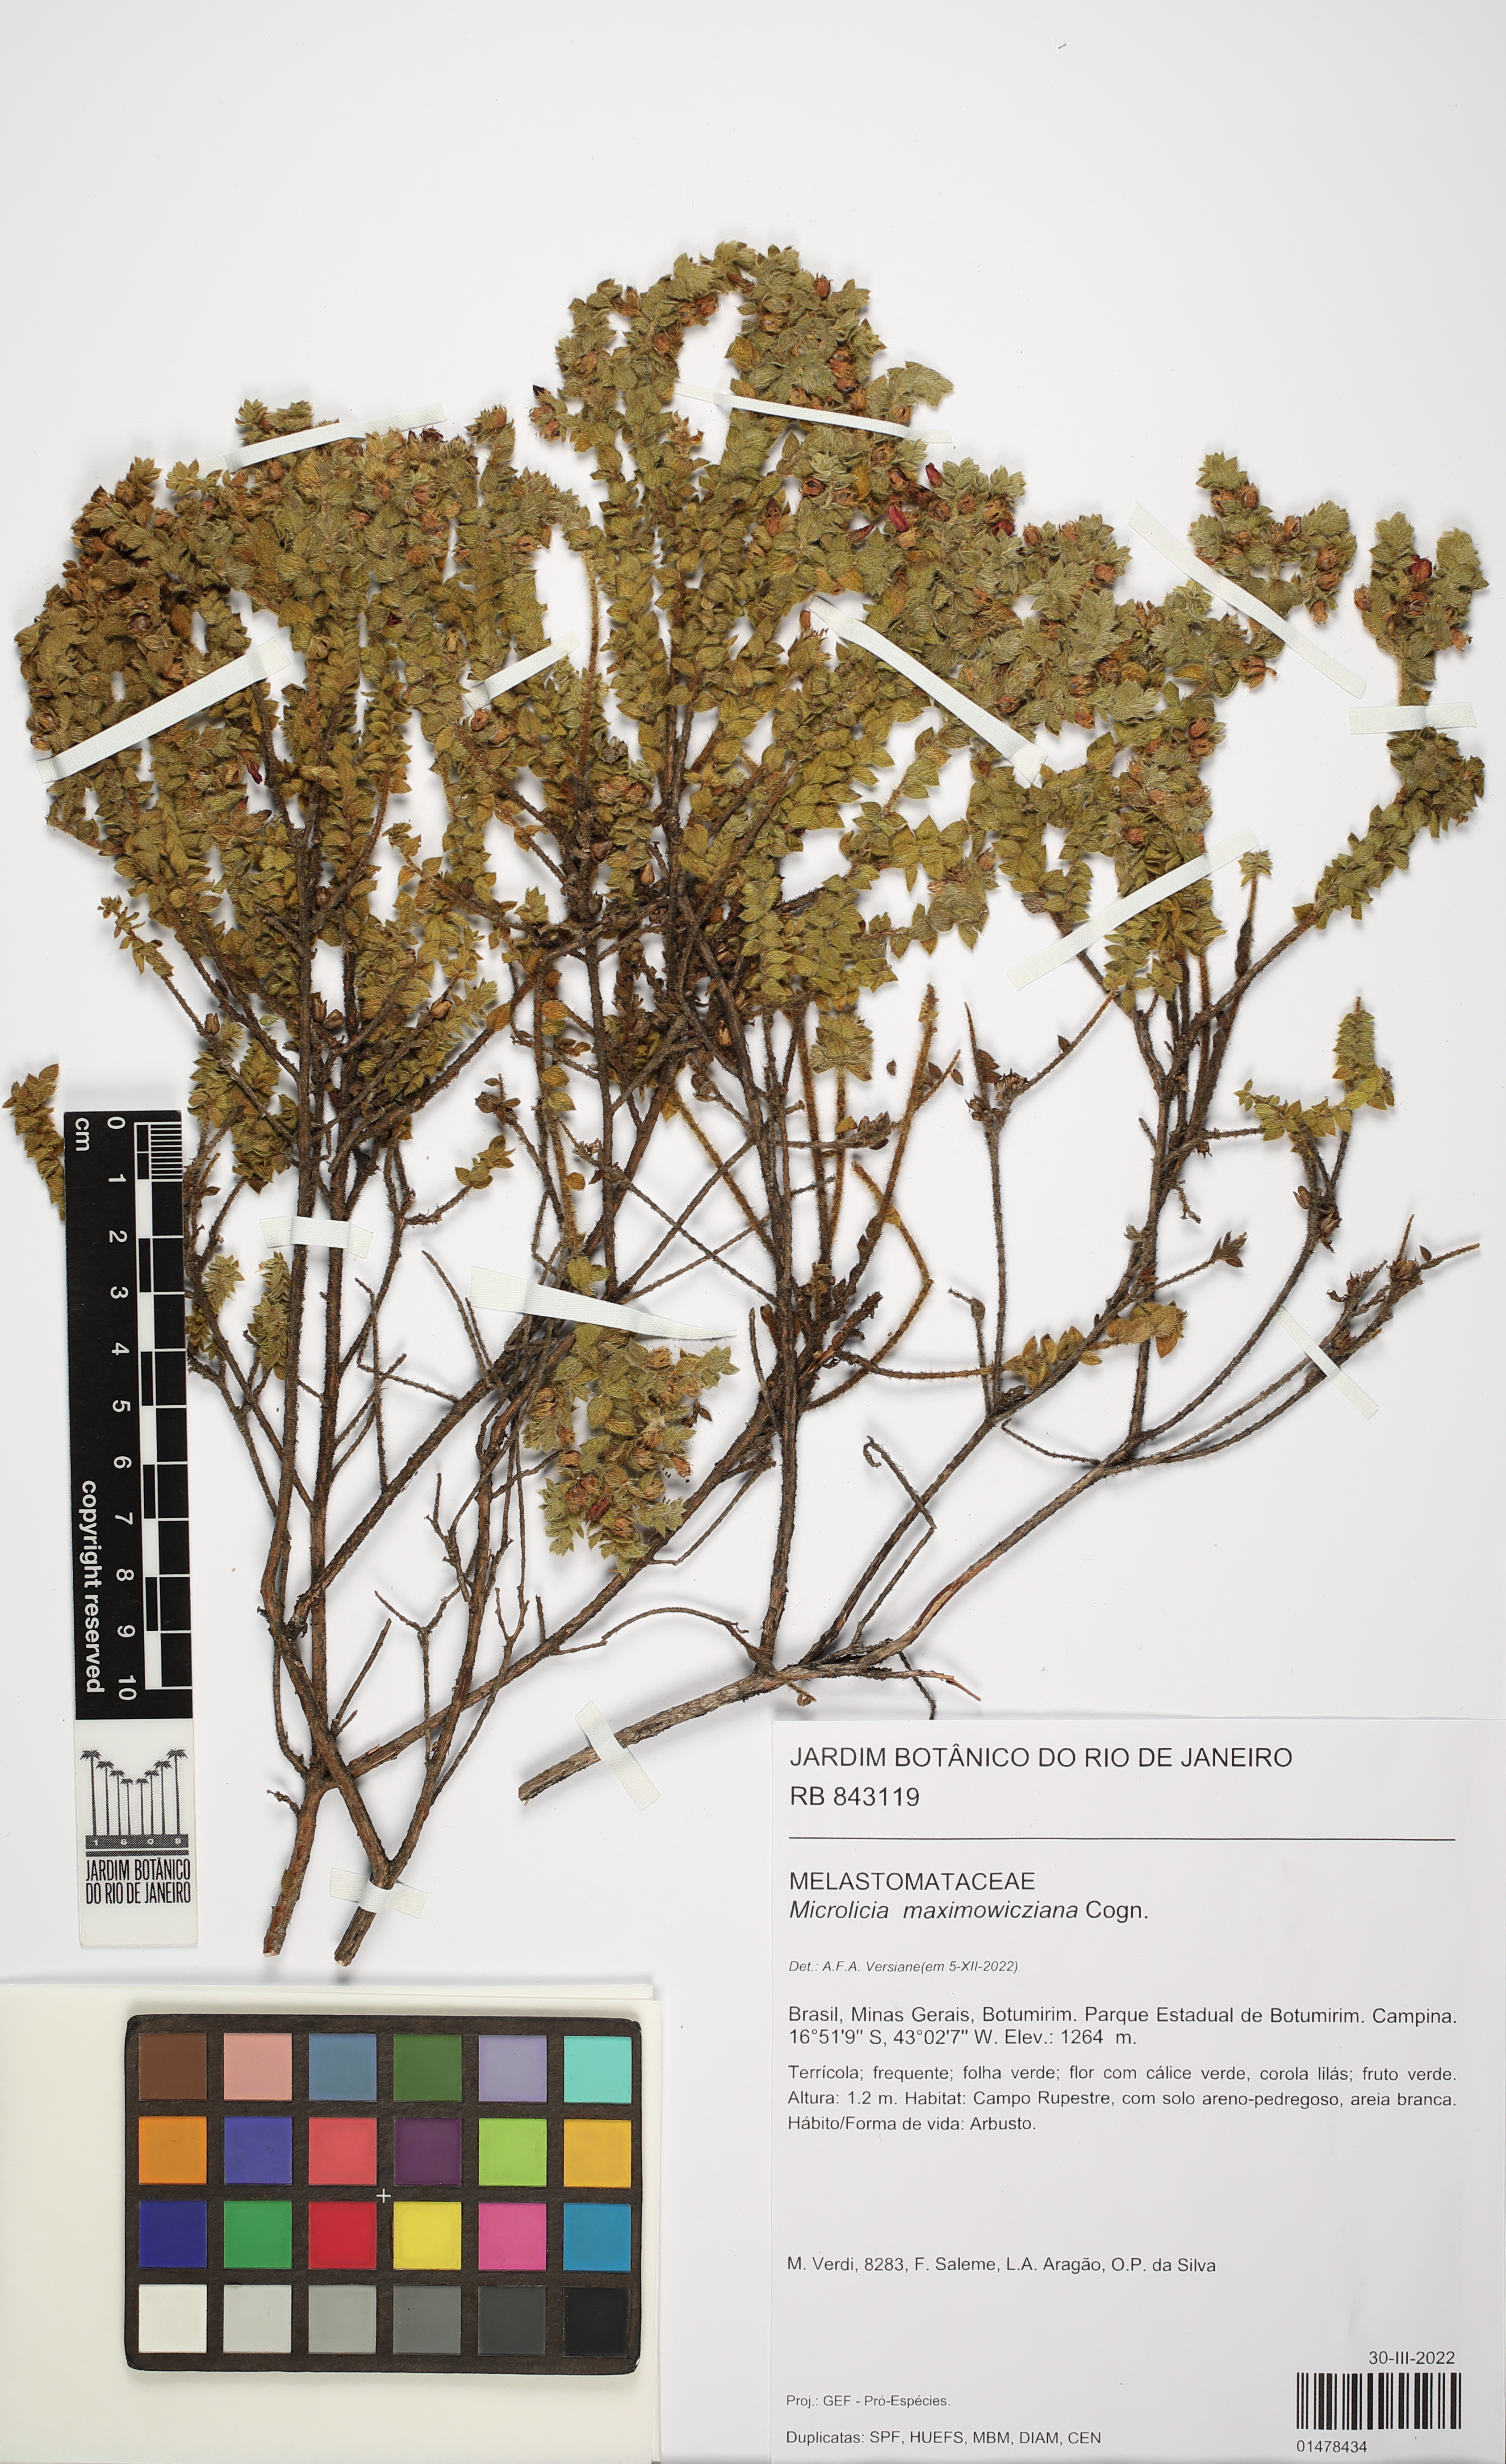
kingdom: Plantae
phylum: Tracheophyta
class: Magnoliopsida
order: Myrtales
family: Melastomataceae
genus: Microlicia
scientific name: Microlicia maximowicziana
